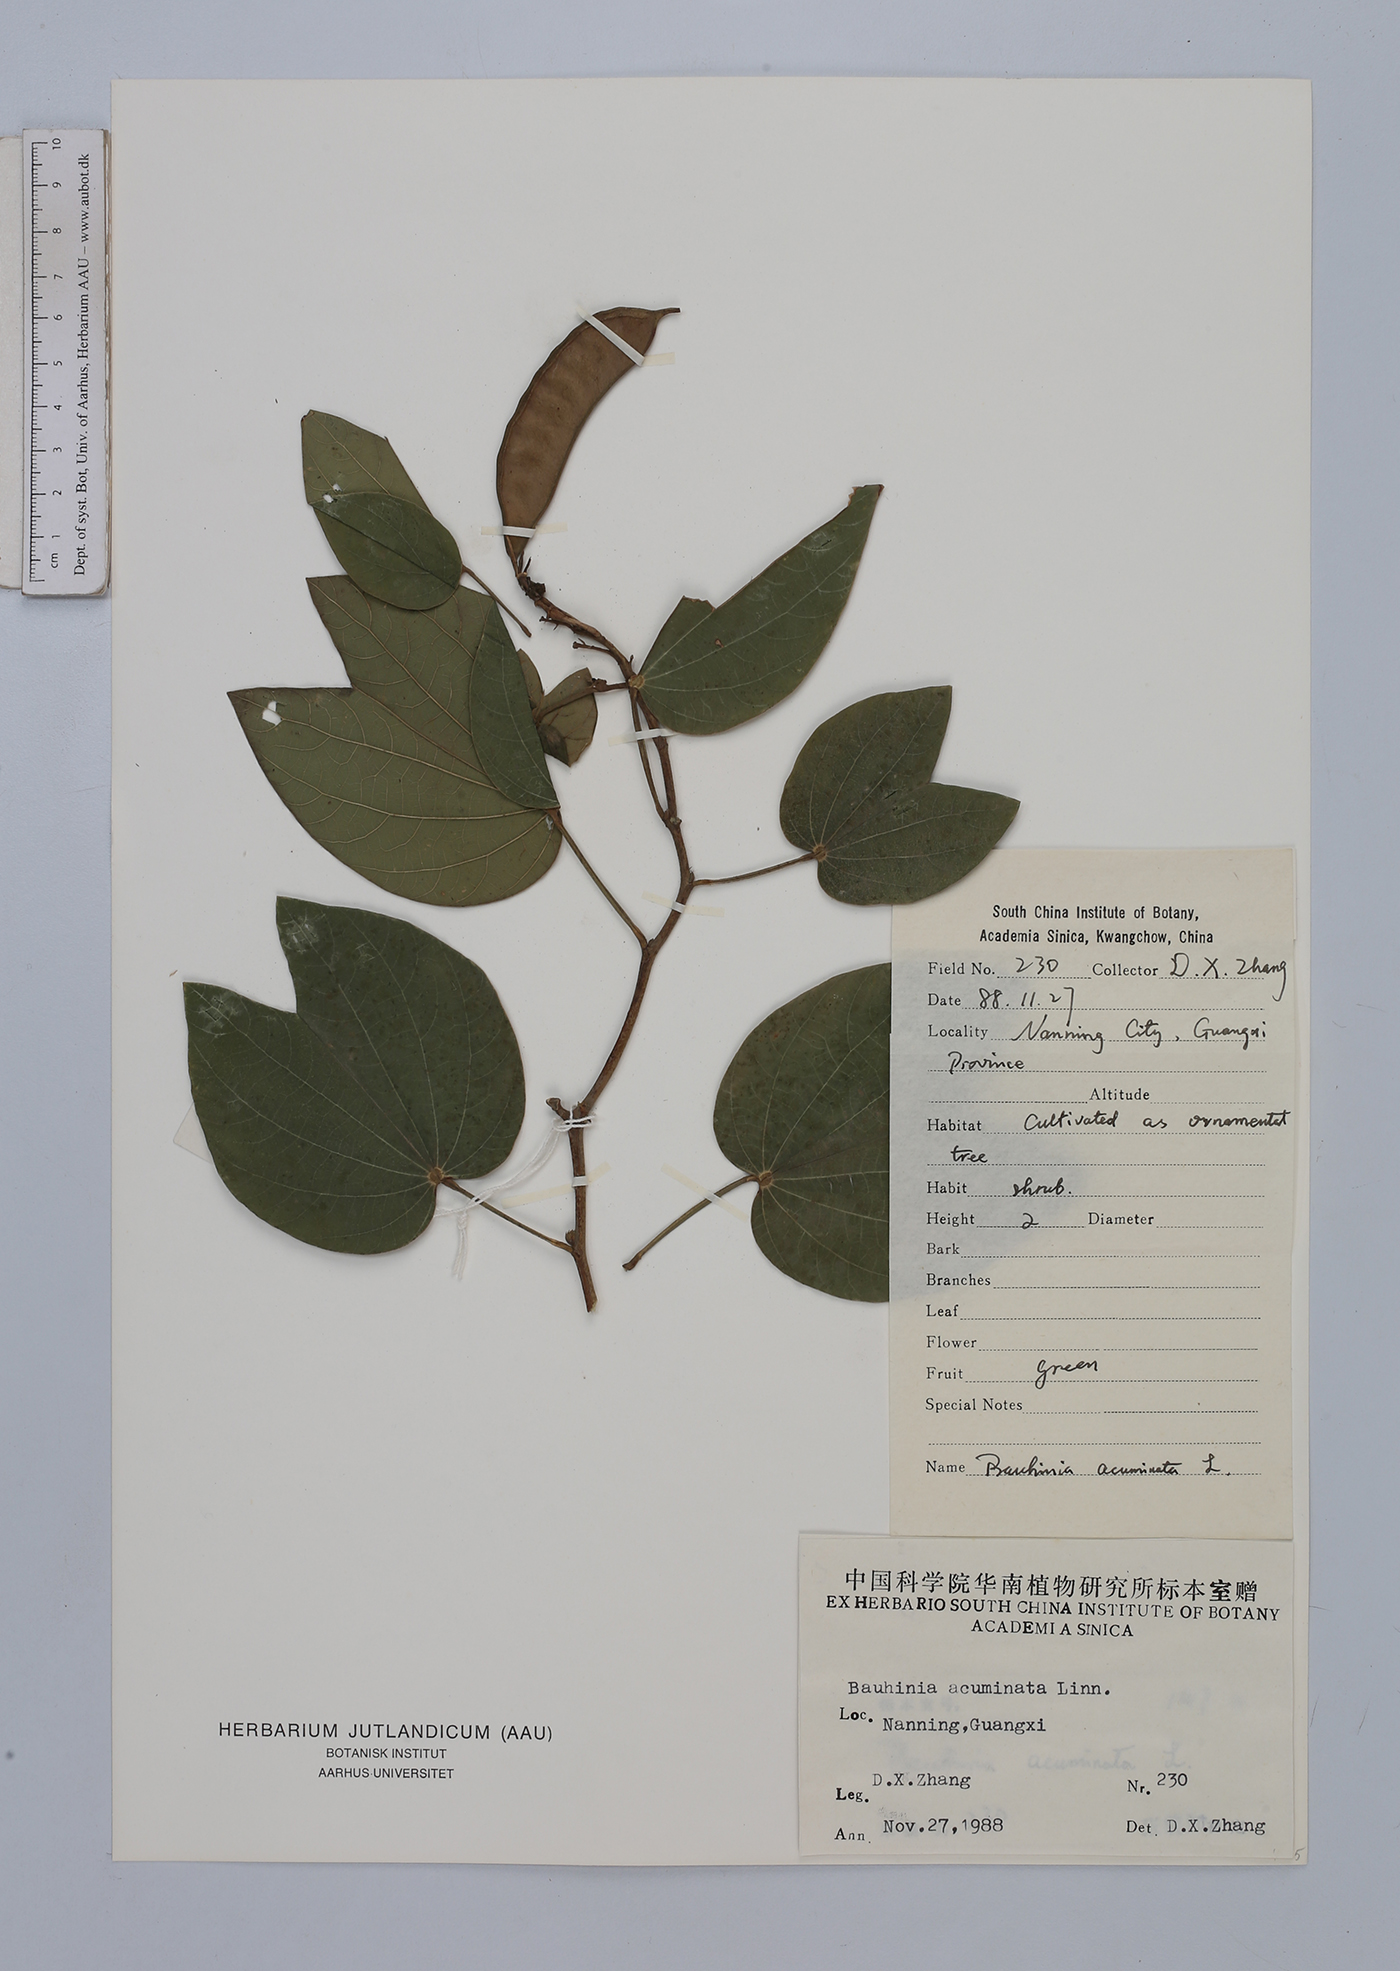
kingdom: Plantae
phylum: Tracheophyta
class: Magnoliopsida
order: Fabales
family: Fabaceae
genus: Bauhinia
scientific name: Bauhinia acuminata
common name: Dwarf white bauhinia
